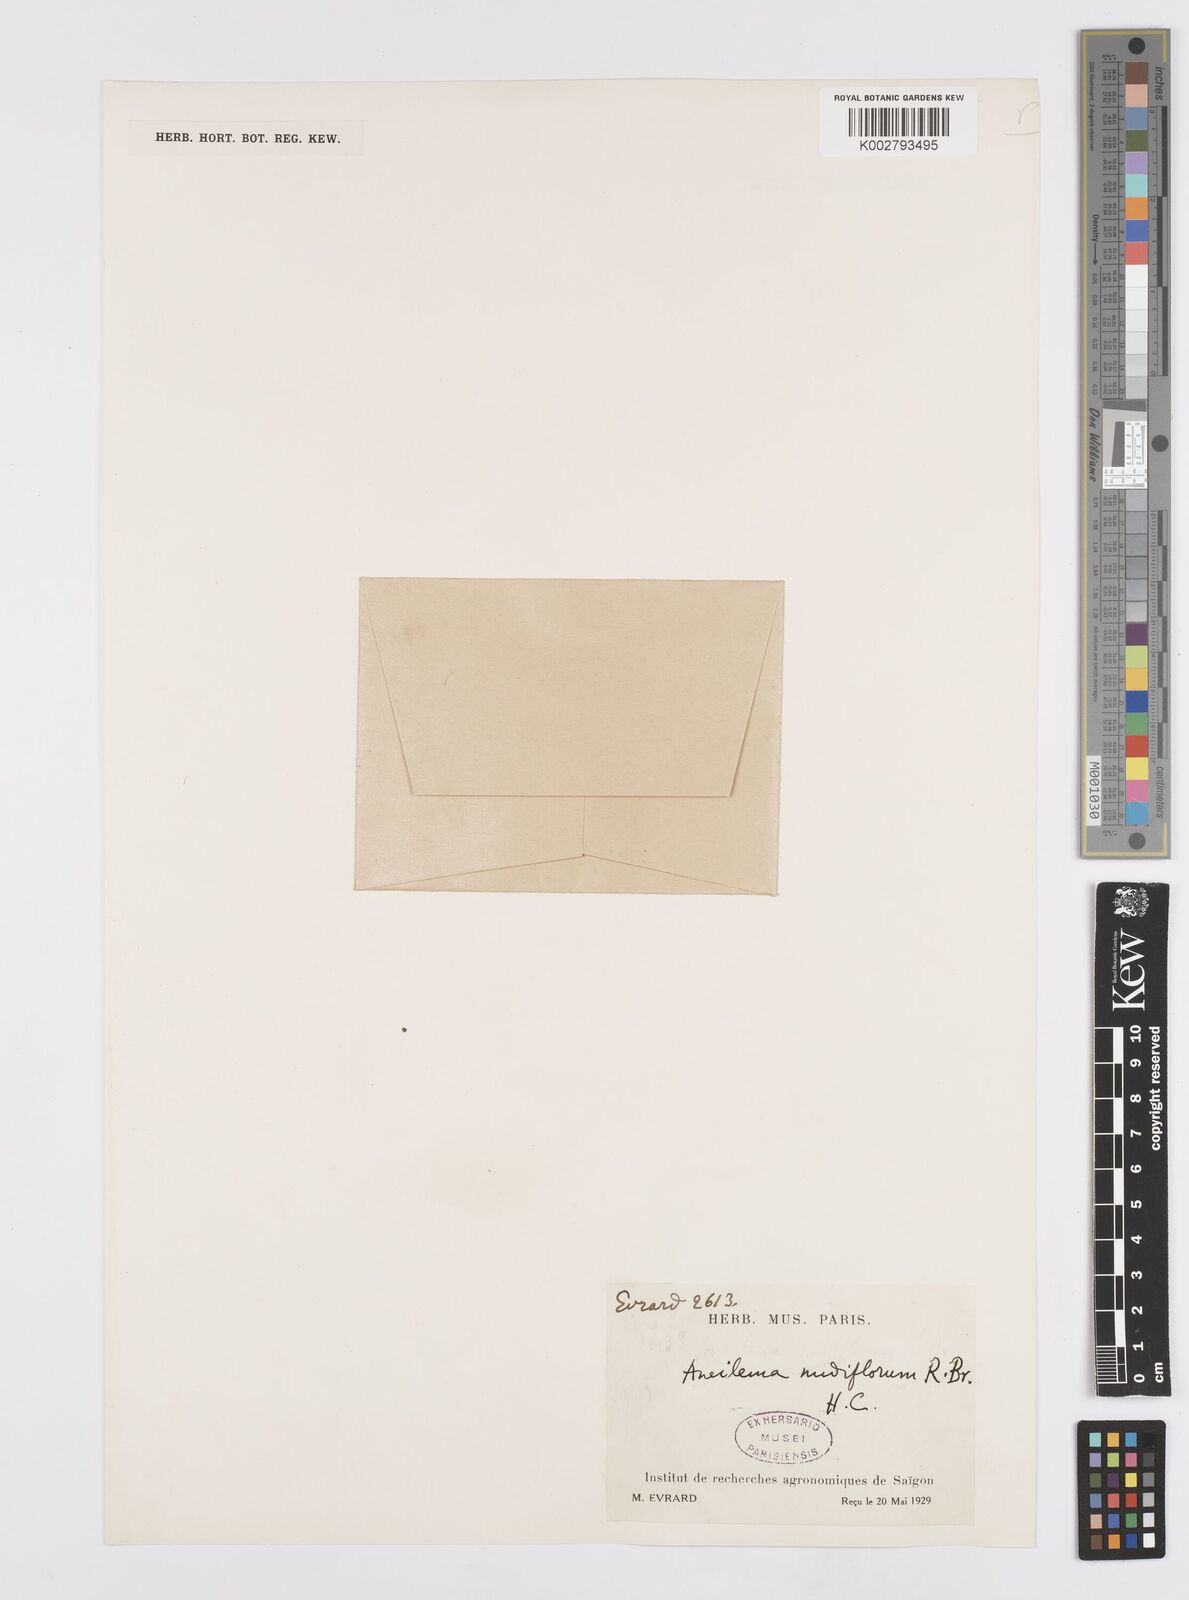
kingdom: Plantae
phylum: Tracheophyta
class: Liliopsida
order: Commelinales
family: Commelinaceae
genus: Murdannia
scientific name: Murdannia nudiflora
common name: Nakedstem dewflower
